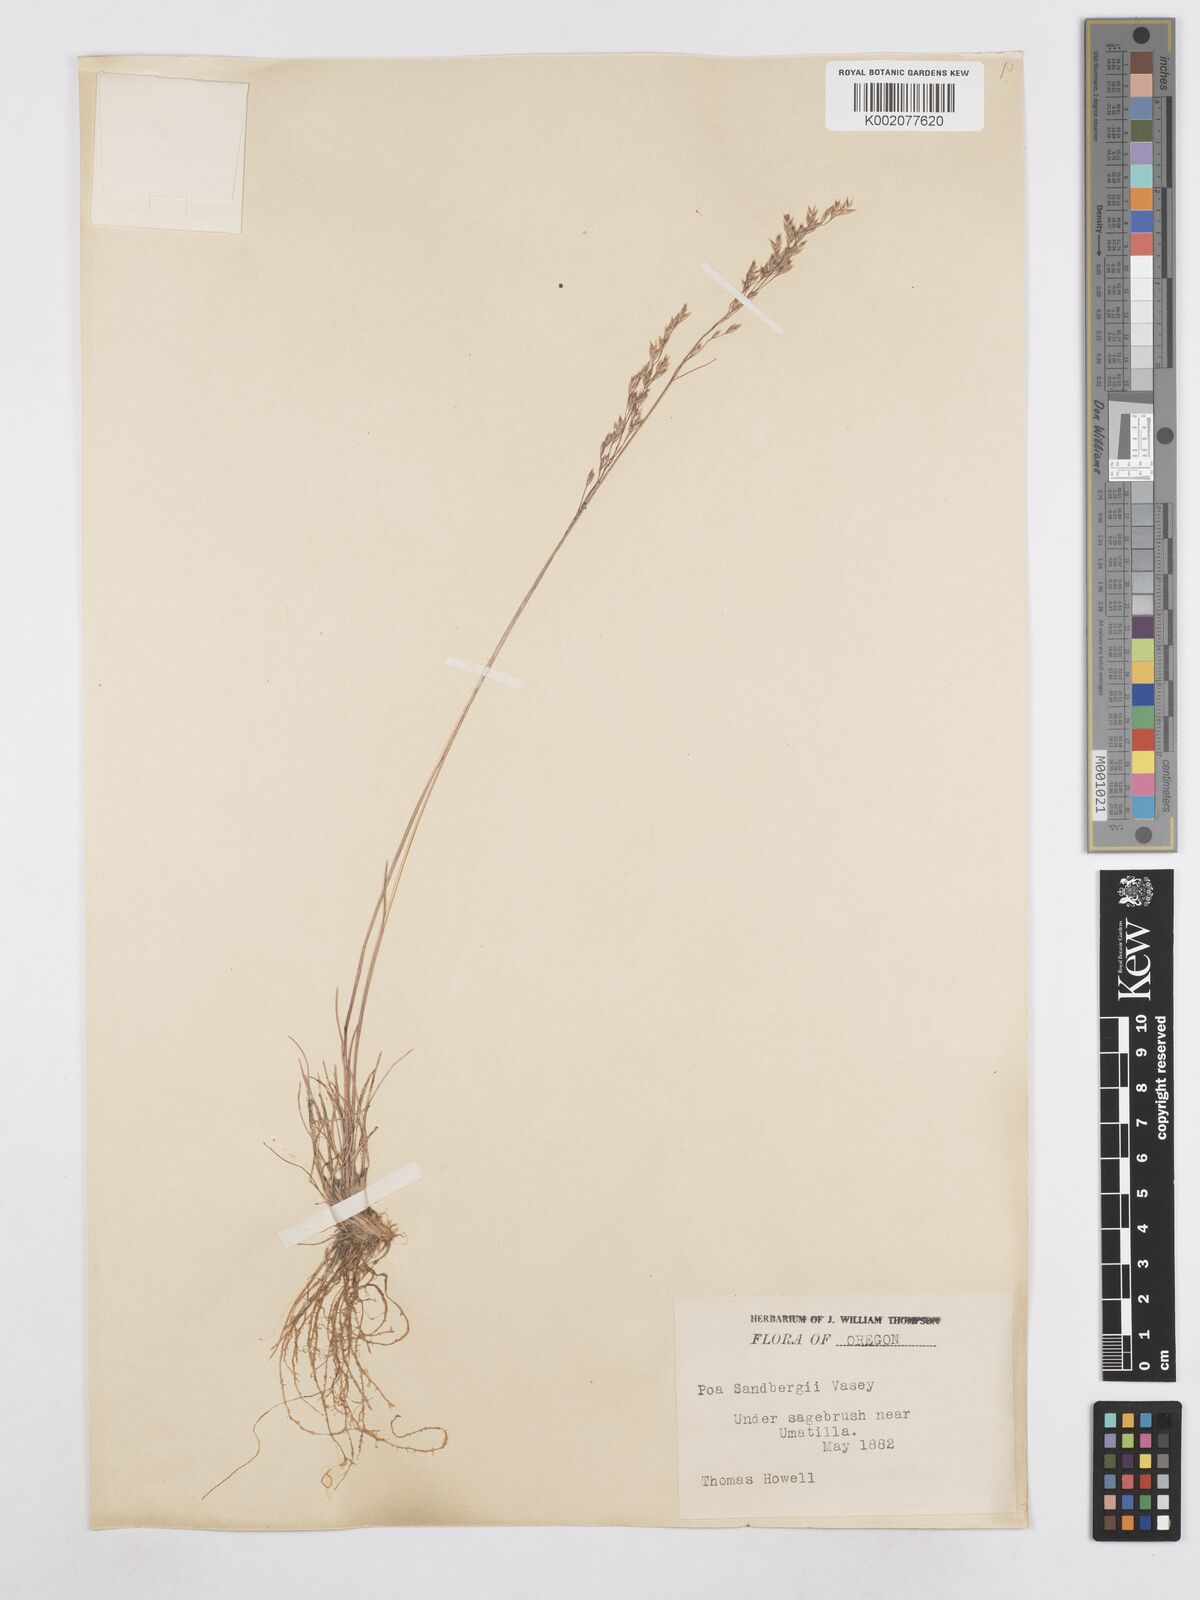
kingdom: Plantae
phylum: Tracheophyta
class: Liliopsida
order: Poales
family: Poaceae
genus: Poa
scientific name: Poa secunda
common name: Sandberg bluegrass
